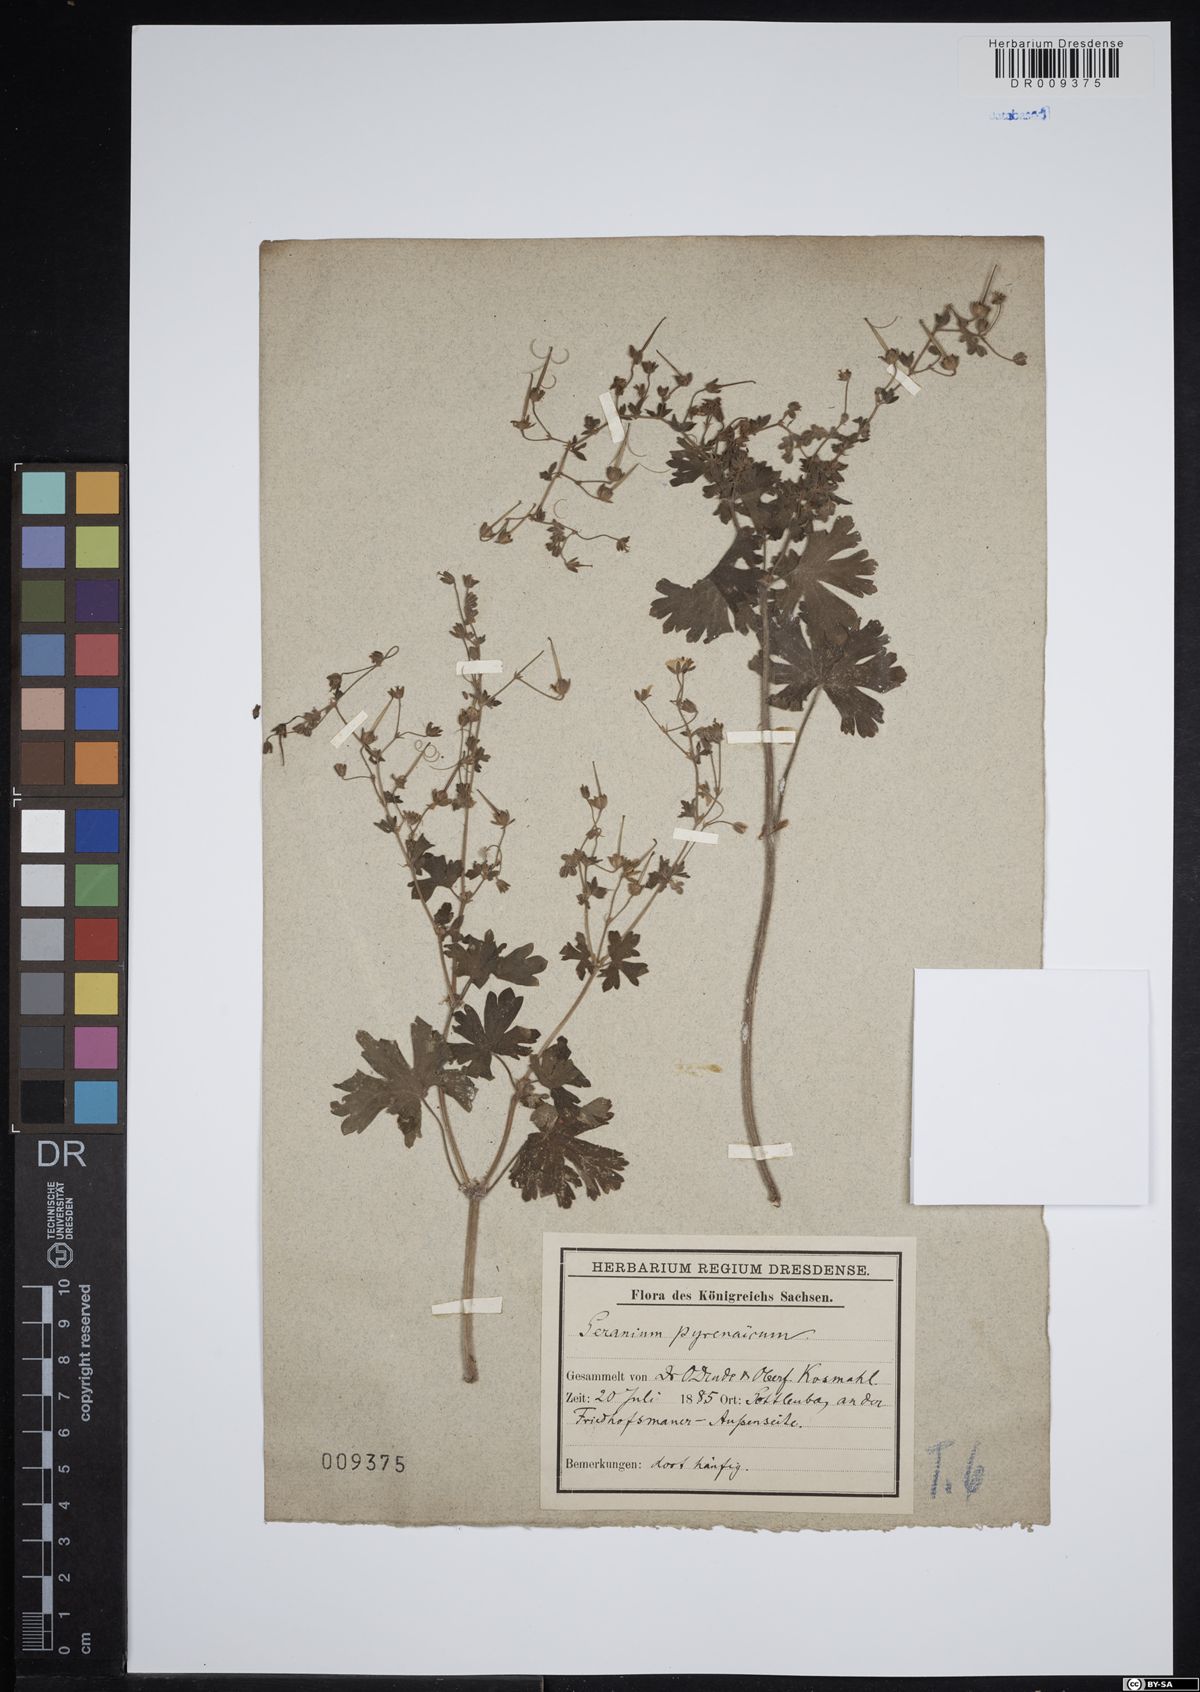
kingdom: Plantae
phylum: Tracheophyta
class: Magnoliopsida
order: Geraniales
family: Geraniaceae
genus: Geranium
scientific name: Geranium pyrenaicum
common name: Hedgerow crane's-bill
